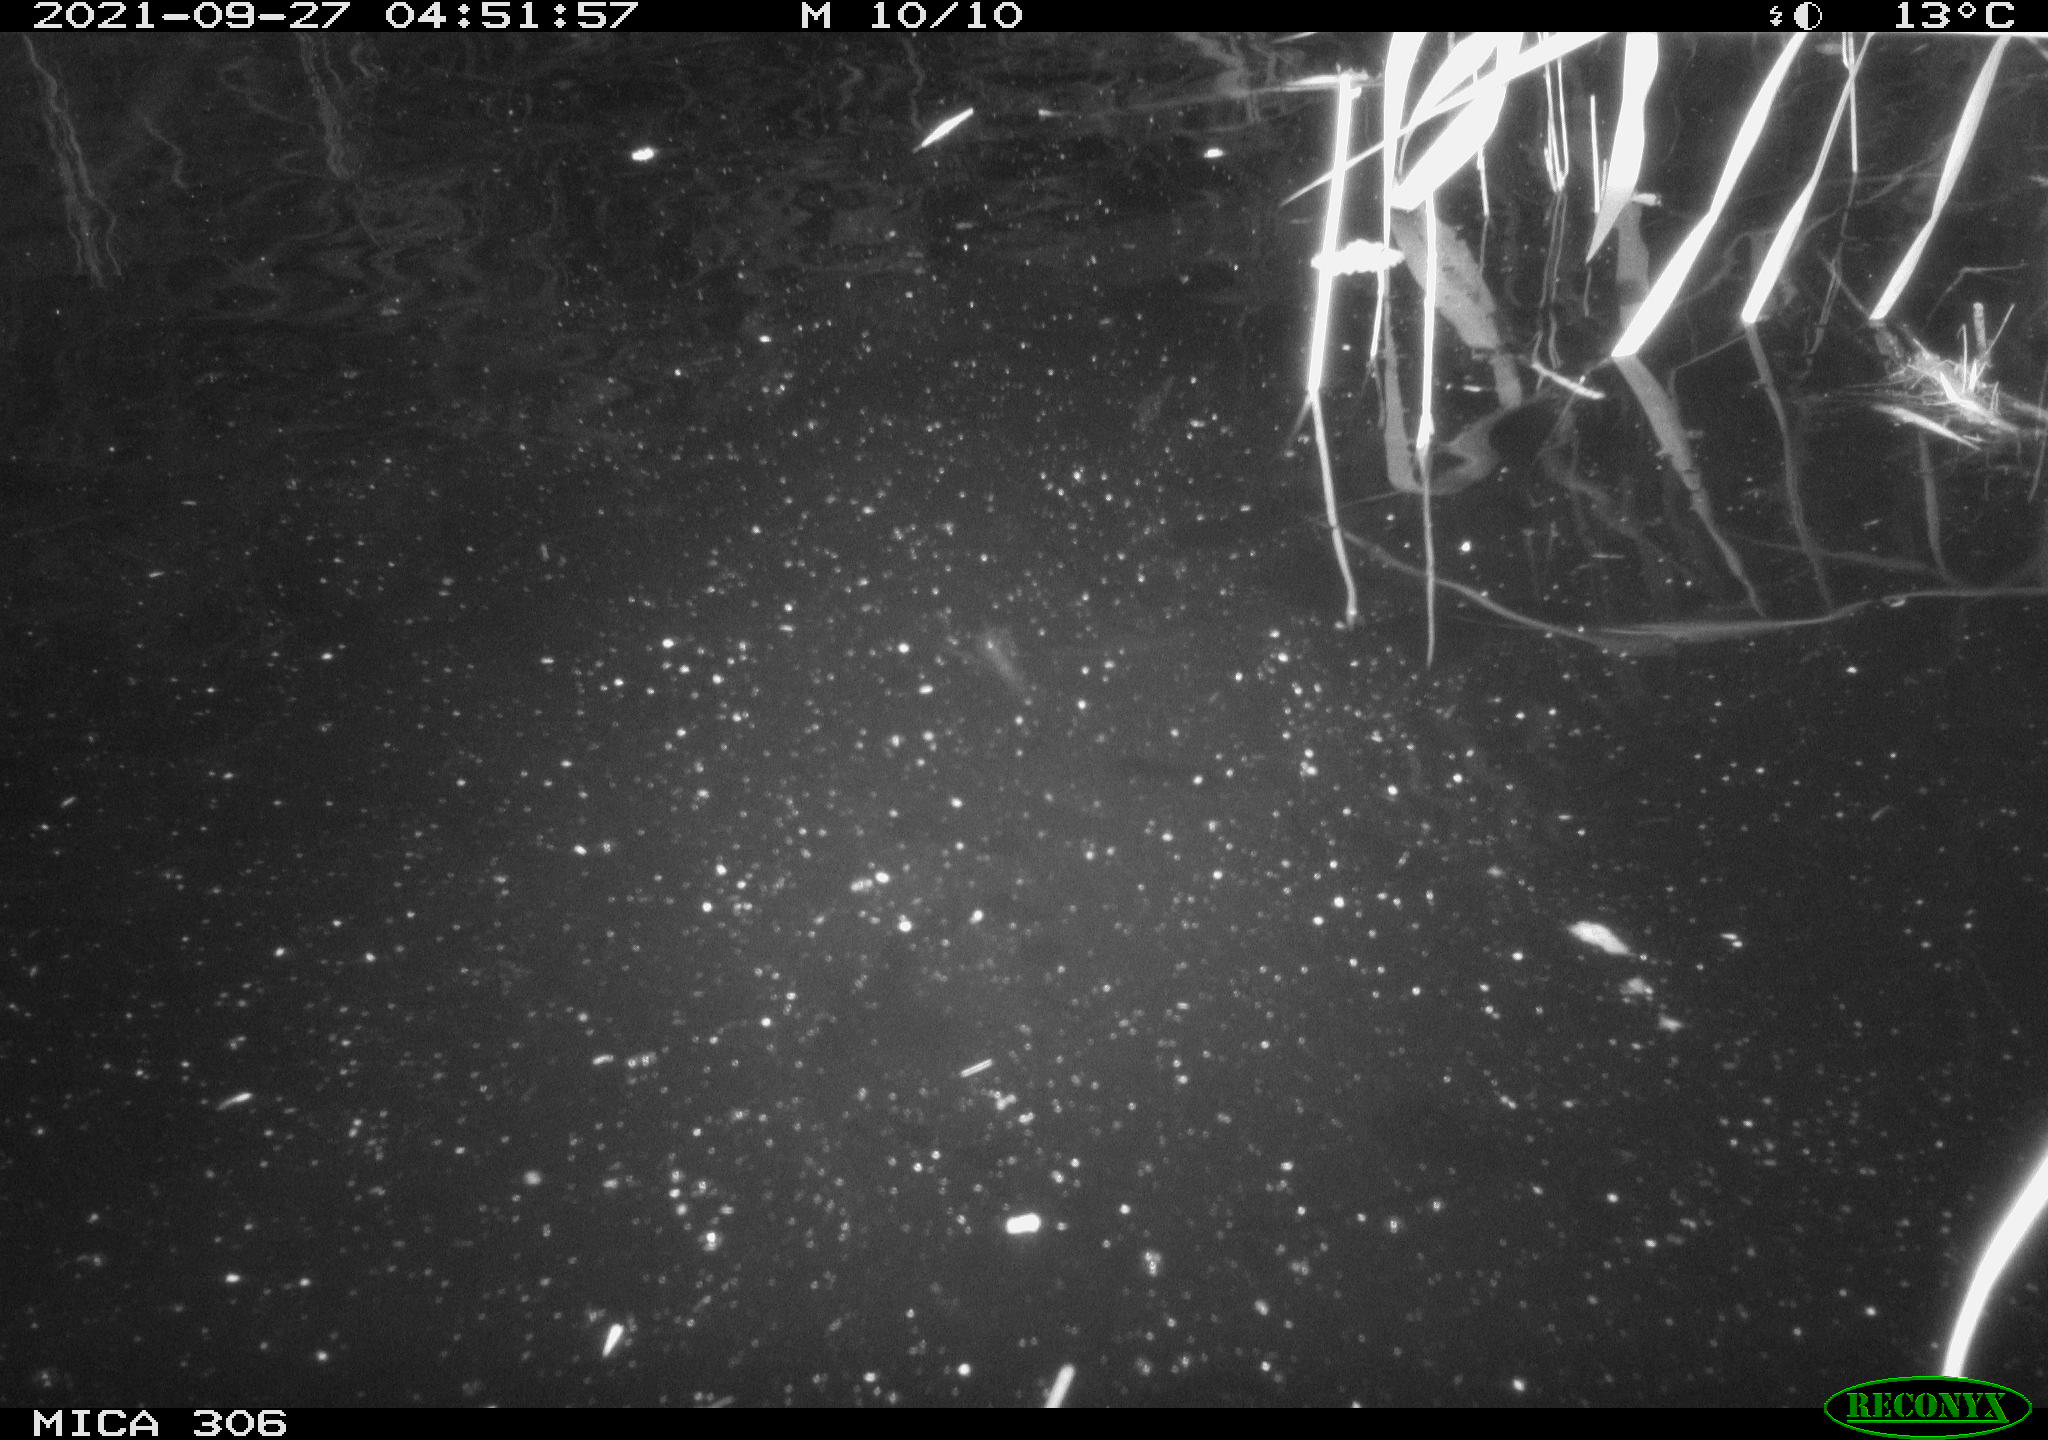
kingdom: Animalia
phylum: Chordata
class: Mammalia
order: Rodentia
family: Cricetidae
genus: Ondatra
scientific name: Ondatra zibethicus
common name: Muskrat
